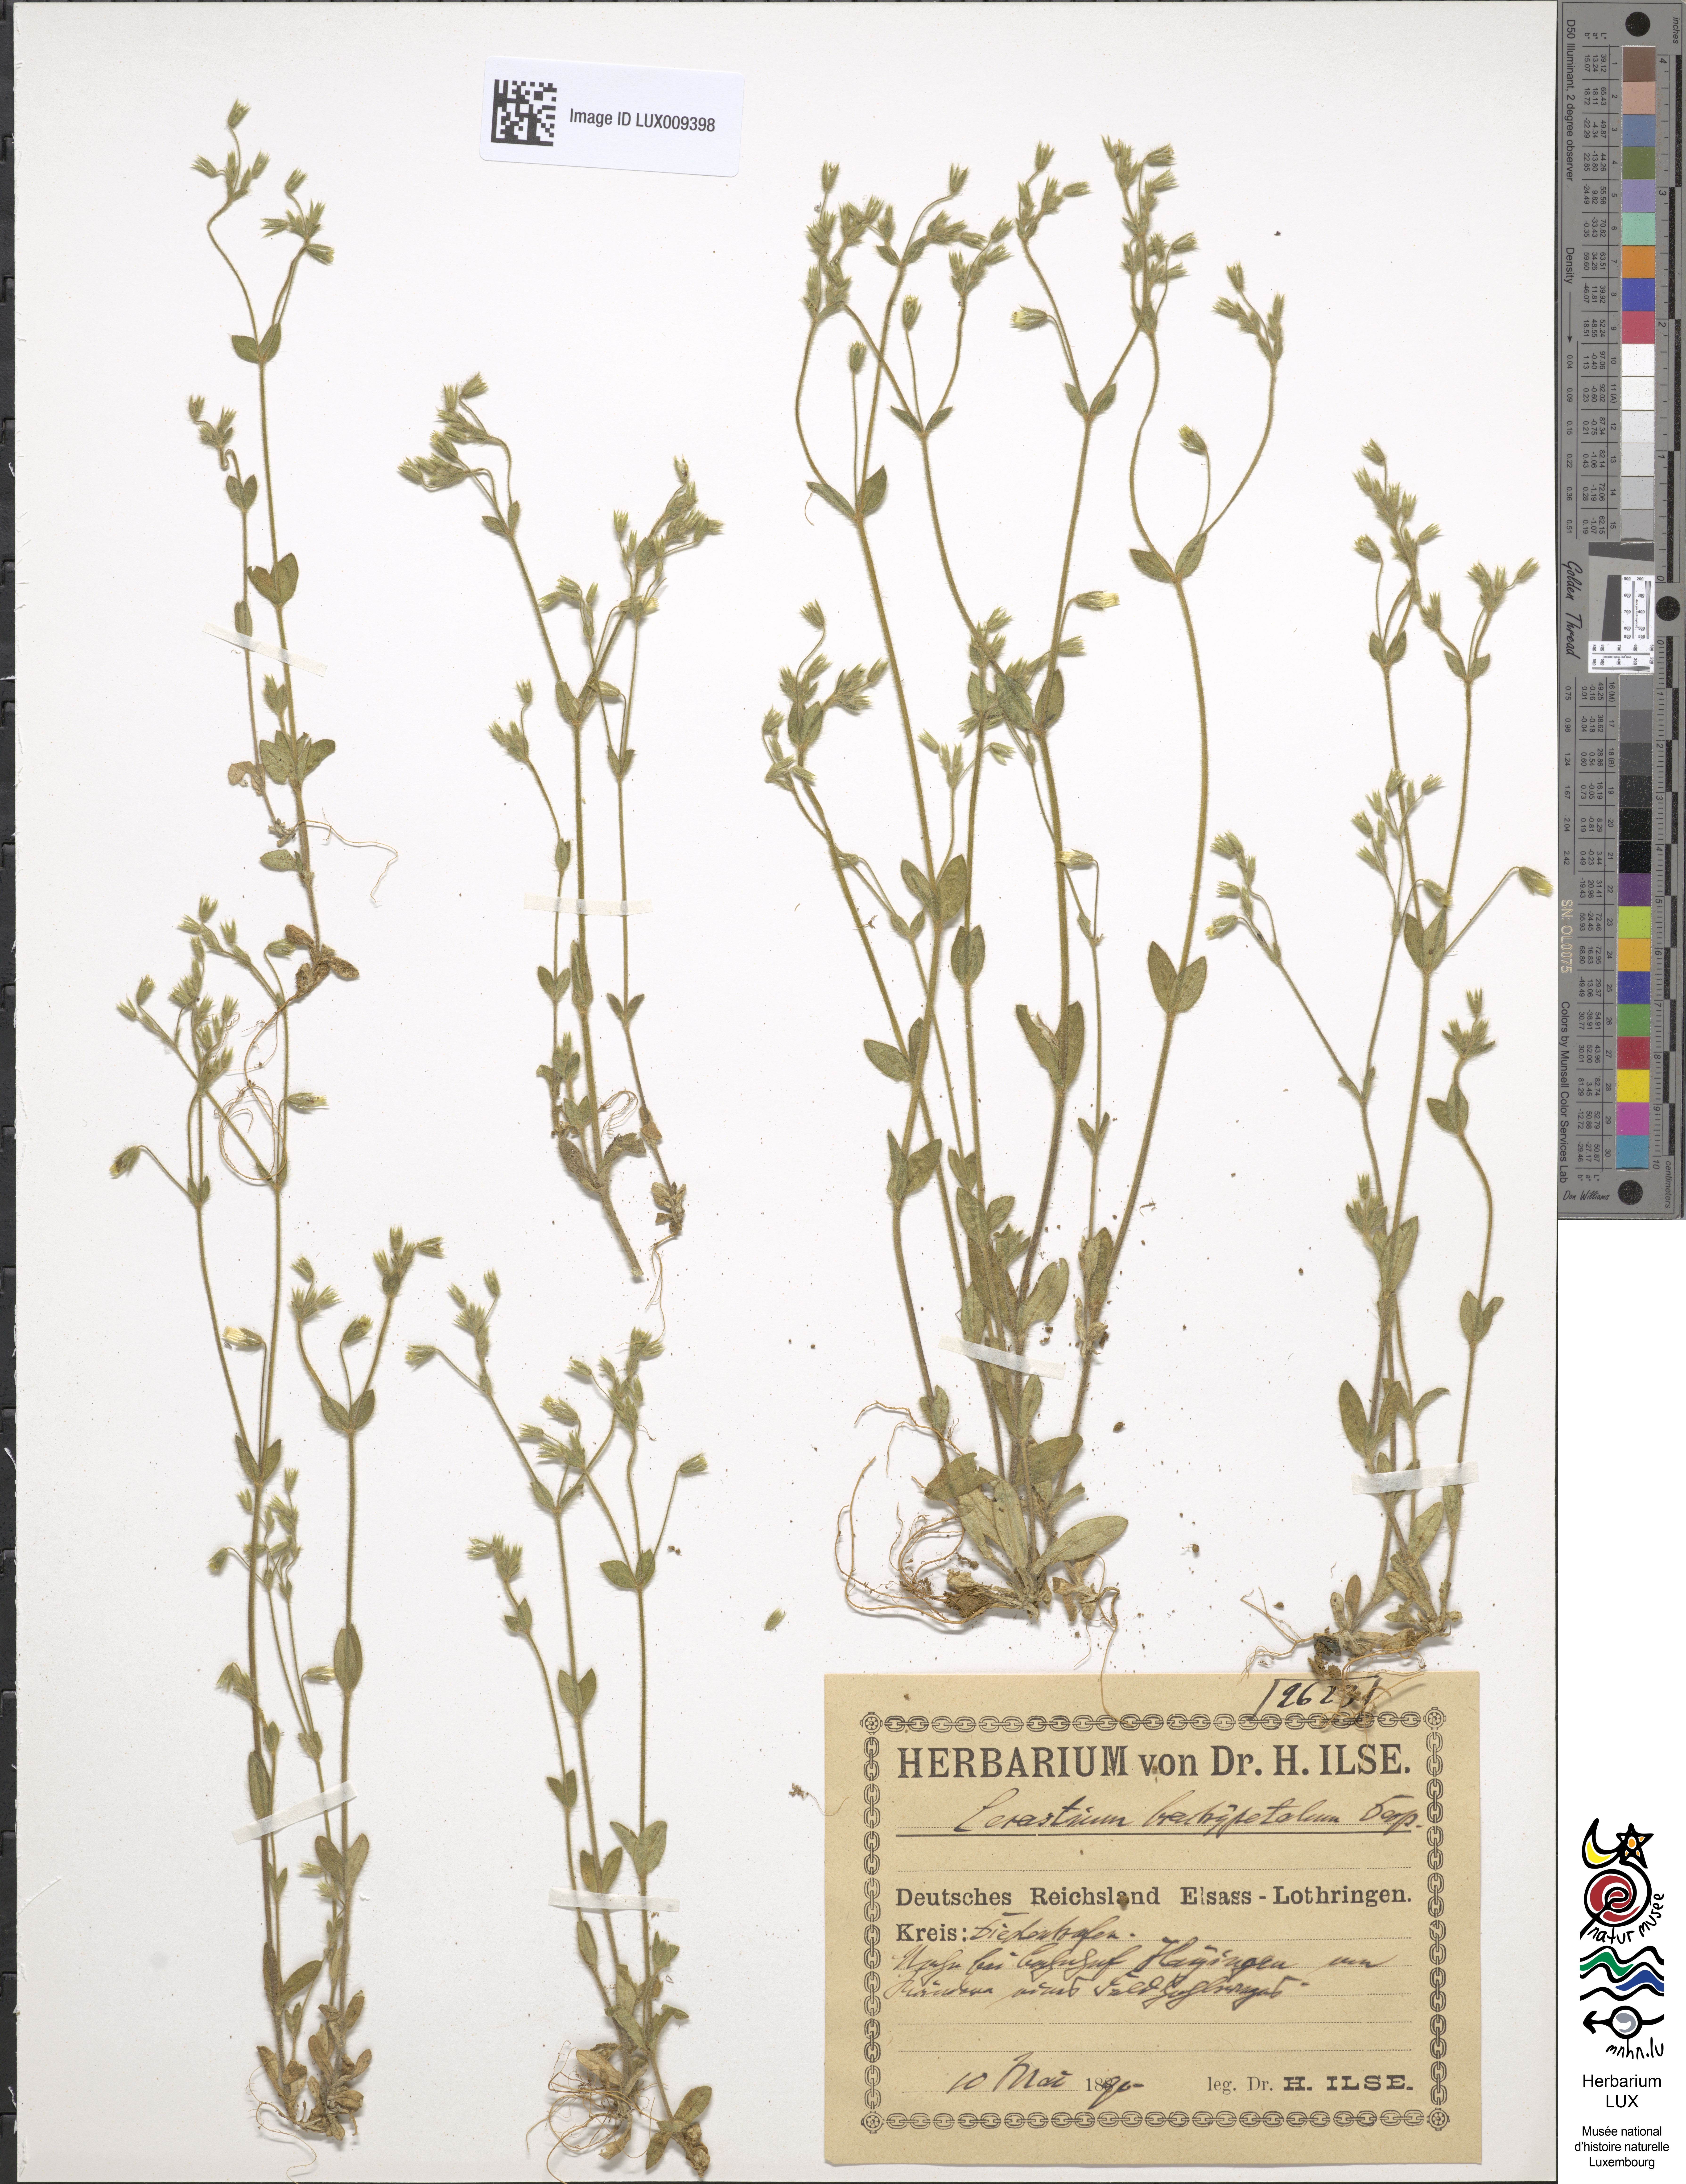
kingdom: Plantae
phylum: Tracheophyta
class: Magnoliopsida
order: Caryophyllales
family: Caryophyllaceae
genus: Cerastium
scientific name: Cerastium brachypetalum
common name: Grey mouse-ear
